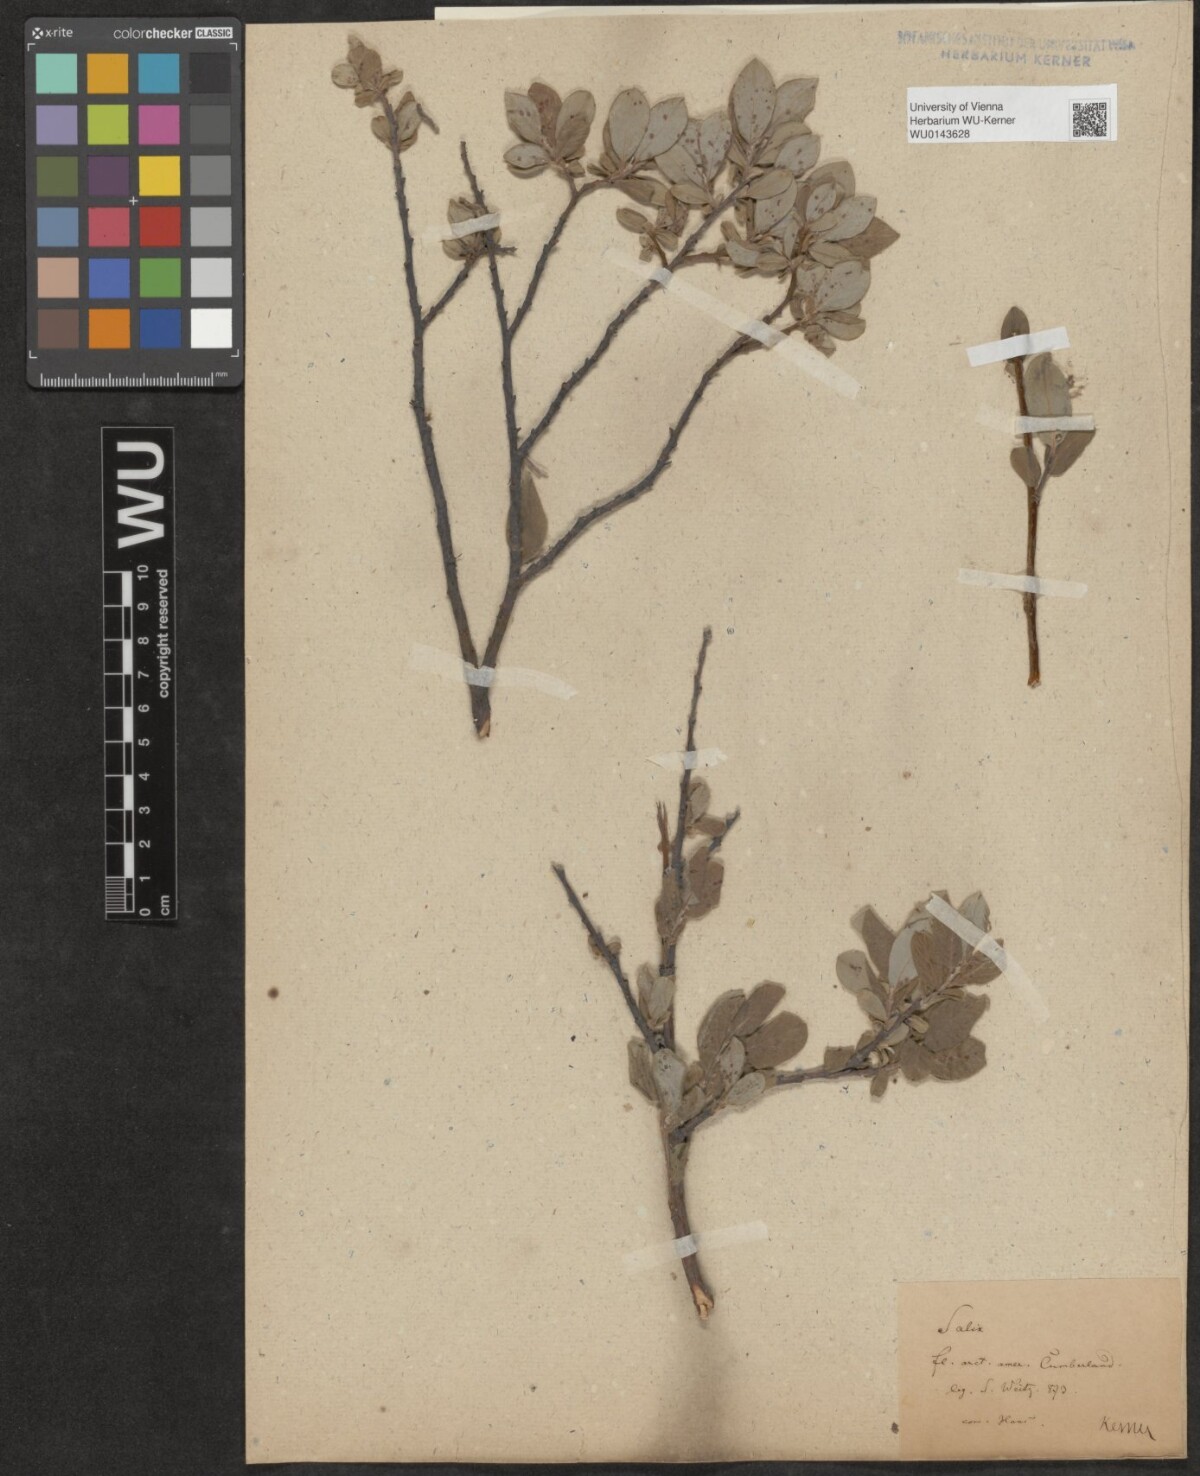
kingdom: Plantae
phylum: Tracheophyta
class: Magnoliopsida
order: Malpighiales
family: Salicaceae
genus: Salix
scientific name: Salix
